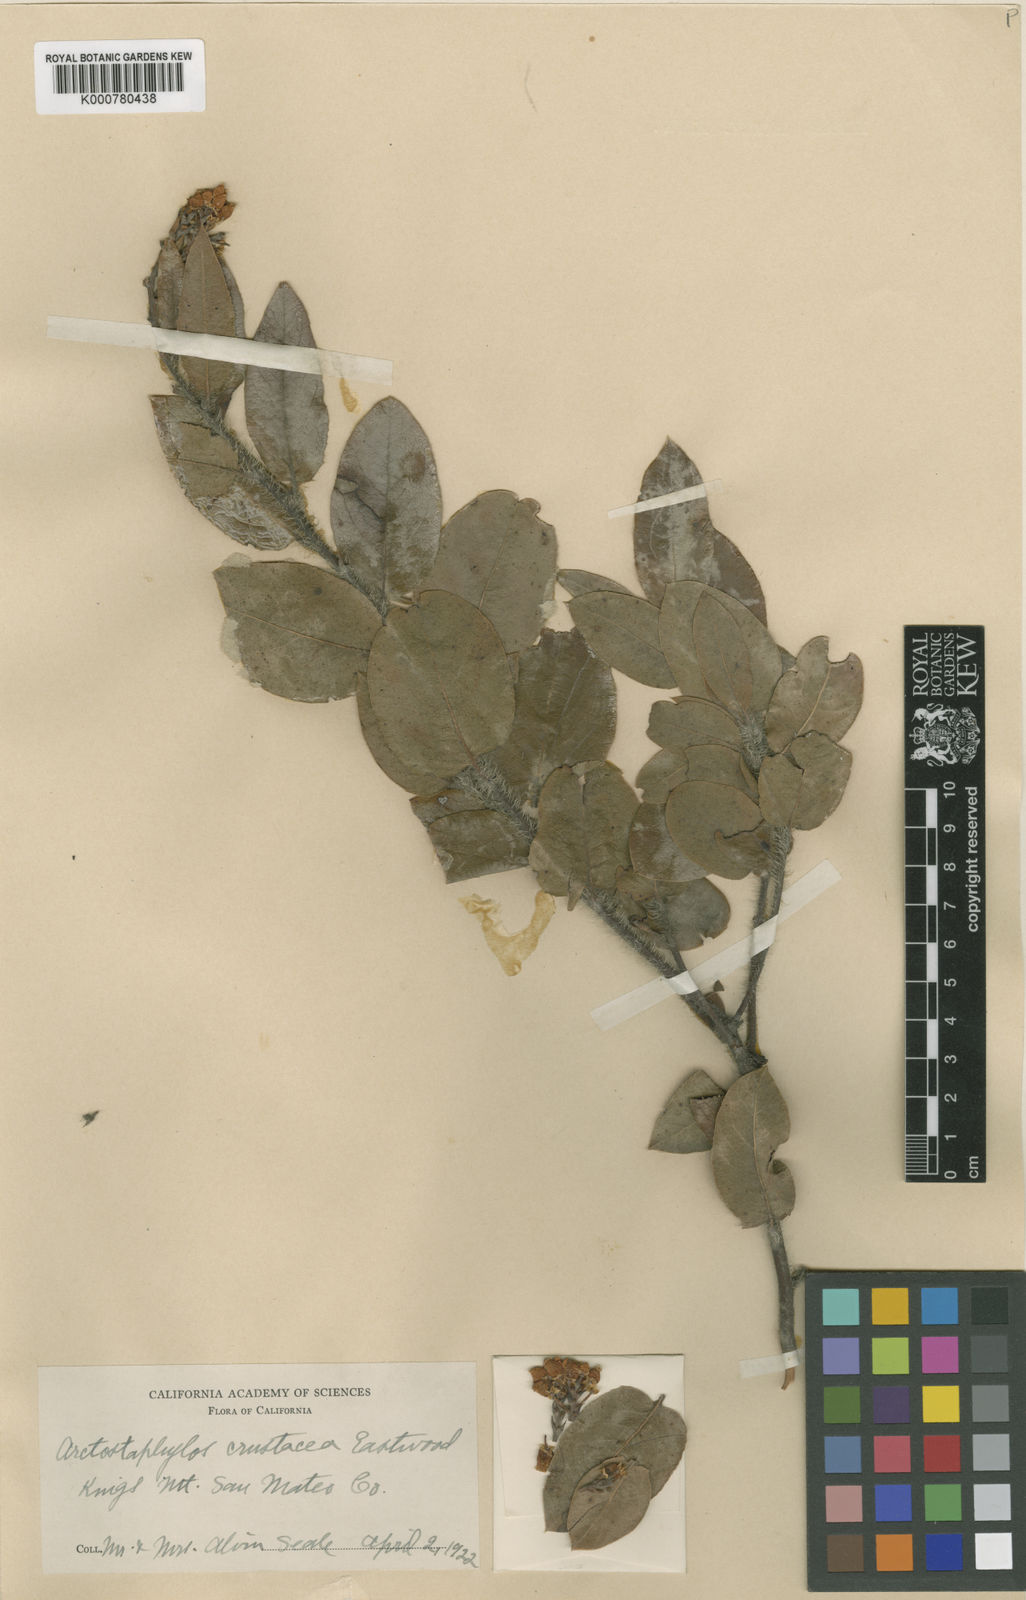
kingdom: Plantae
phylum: Tracheophyta
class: Magnoliopsida
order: Ericales
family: Ericaceae
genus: Arctostaphylos
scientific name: Arctostaphylos crustacea
